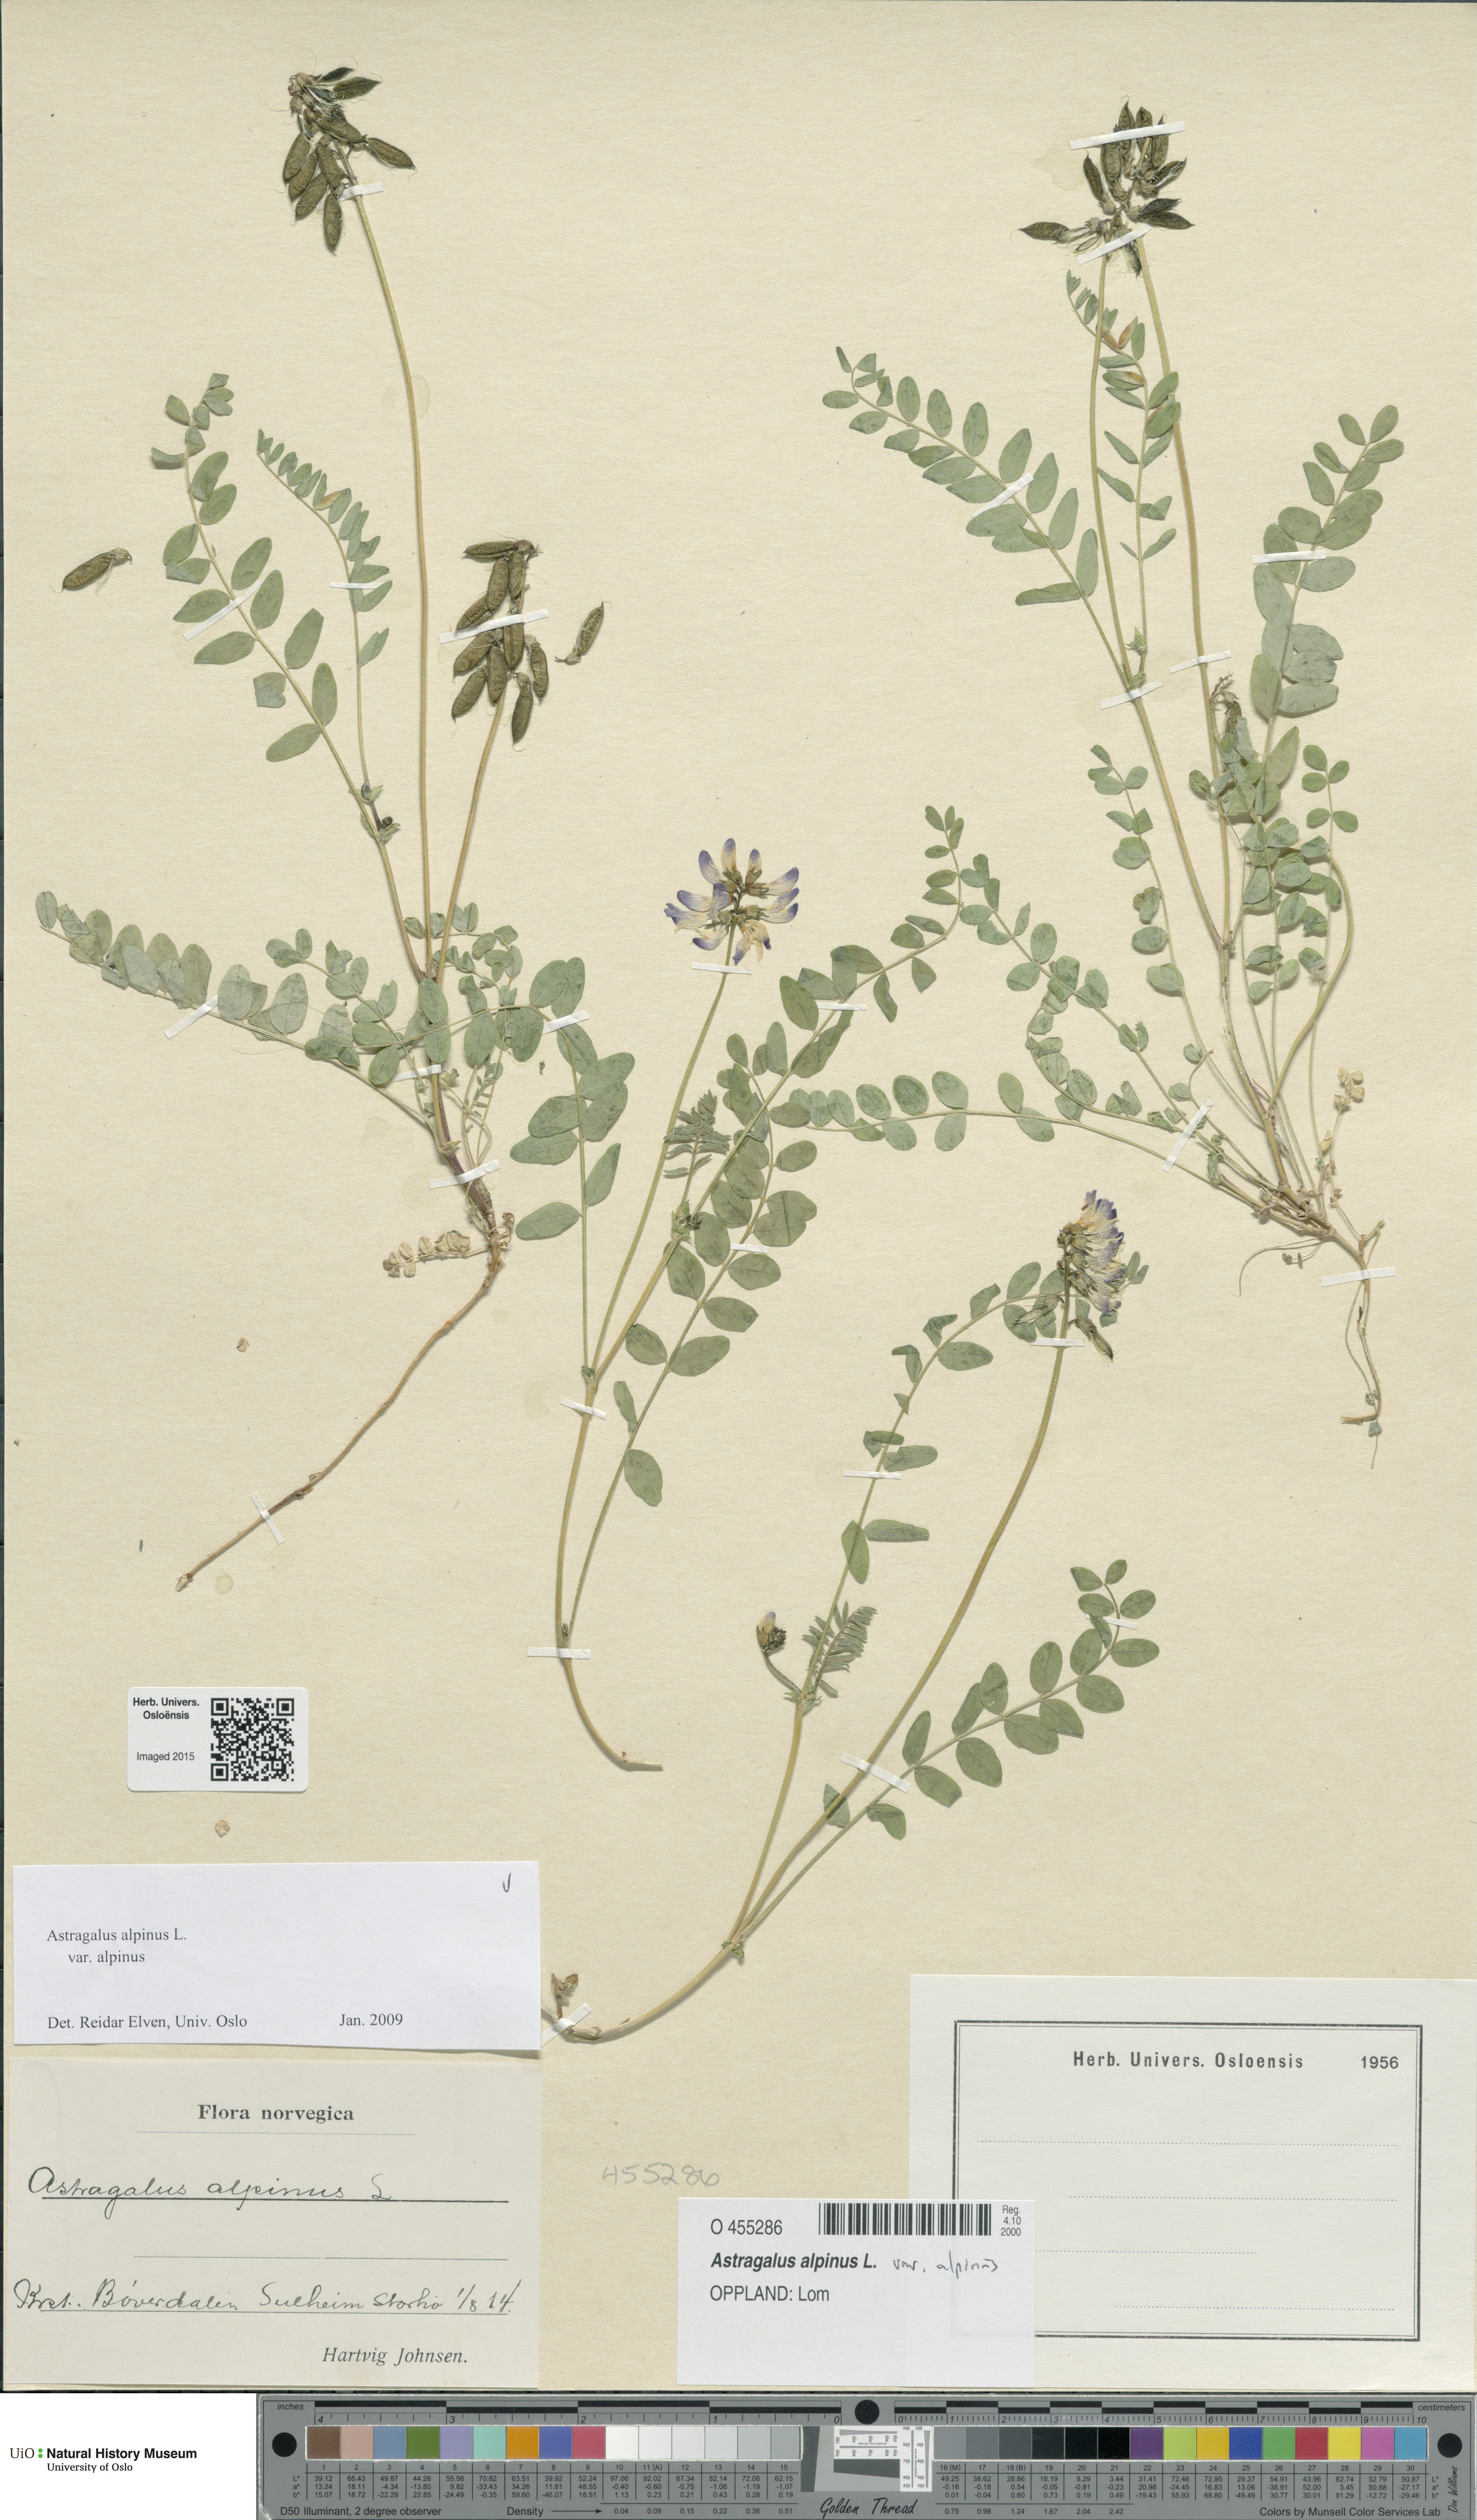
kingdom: Plantae
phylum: Tracheophyta
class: Magnoliopsida
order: Fabales
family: Fabaceae
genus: Astragalus
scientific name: Astragalus alpinus
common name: Alpine milk-vetch
